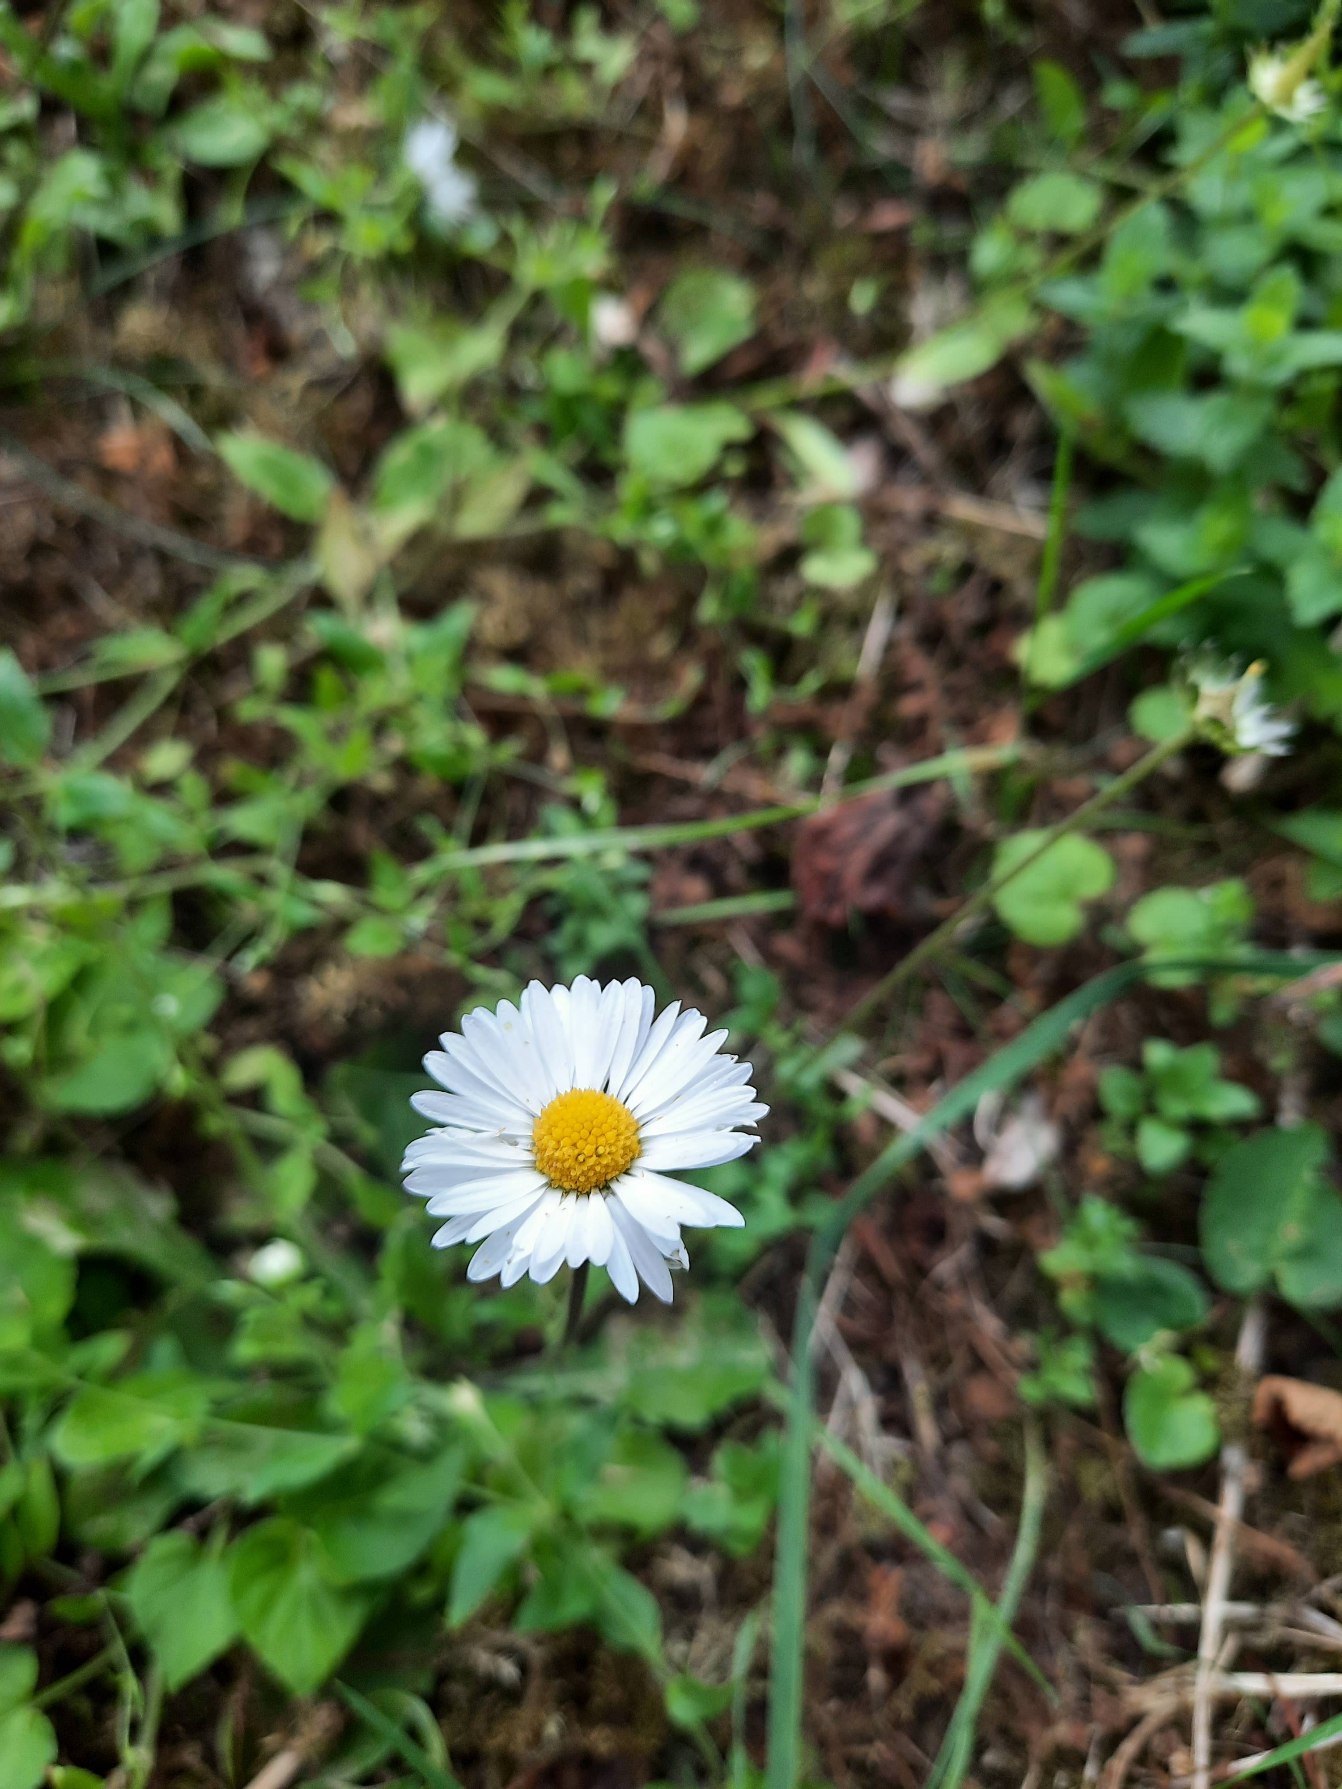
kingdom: Plantae
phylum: Tracheophyta
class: Magnoliopsida
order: Asterales
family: Asteraceae
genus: Bellis
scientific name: Bellis perennis
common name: Tusindfryd
